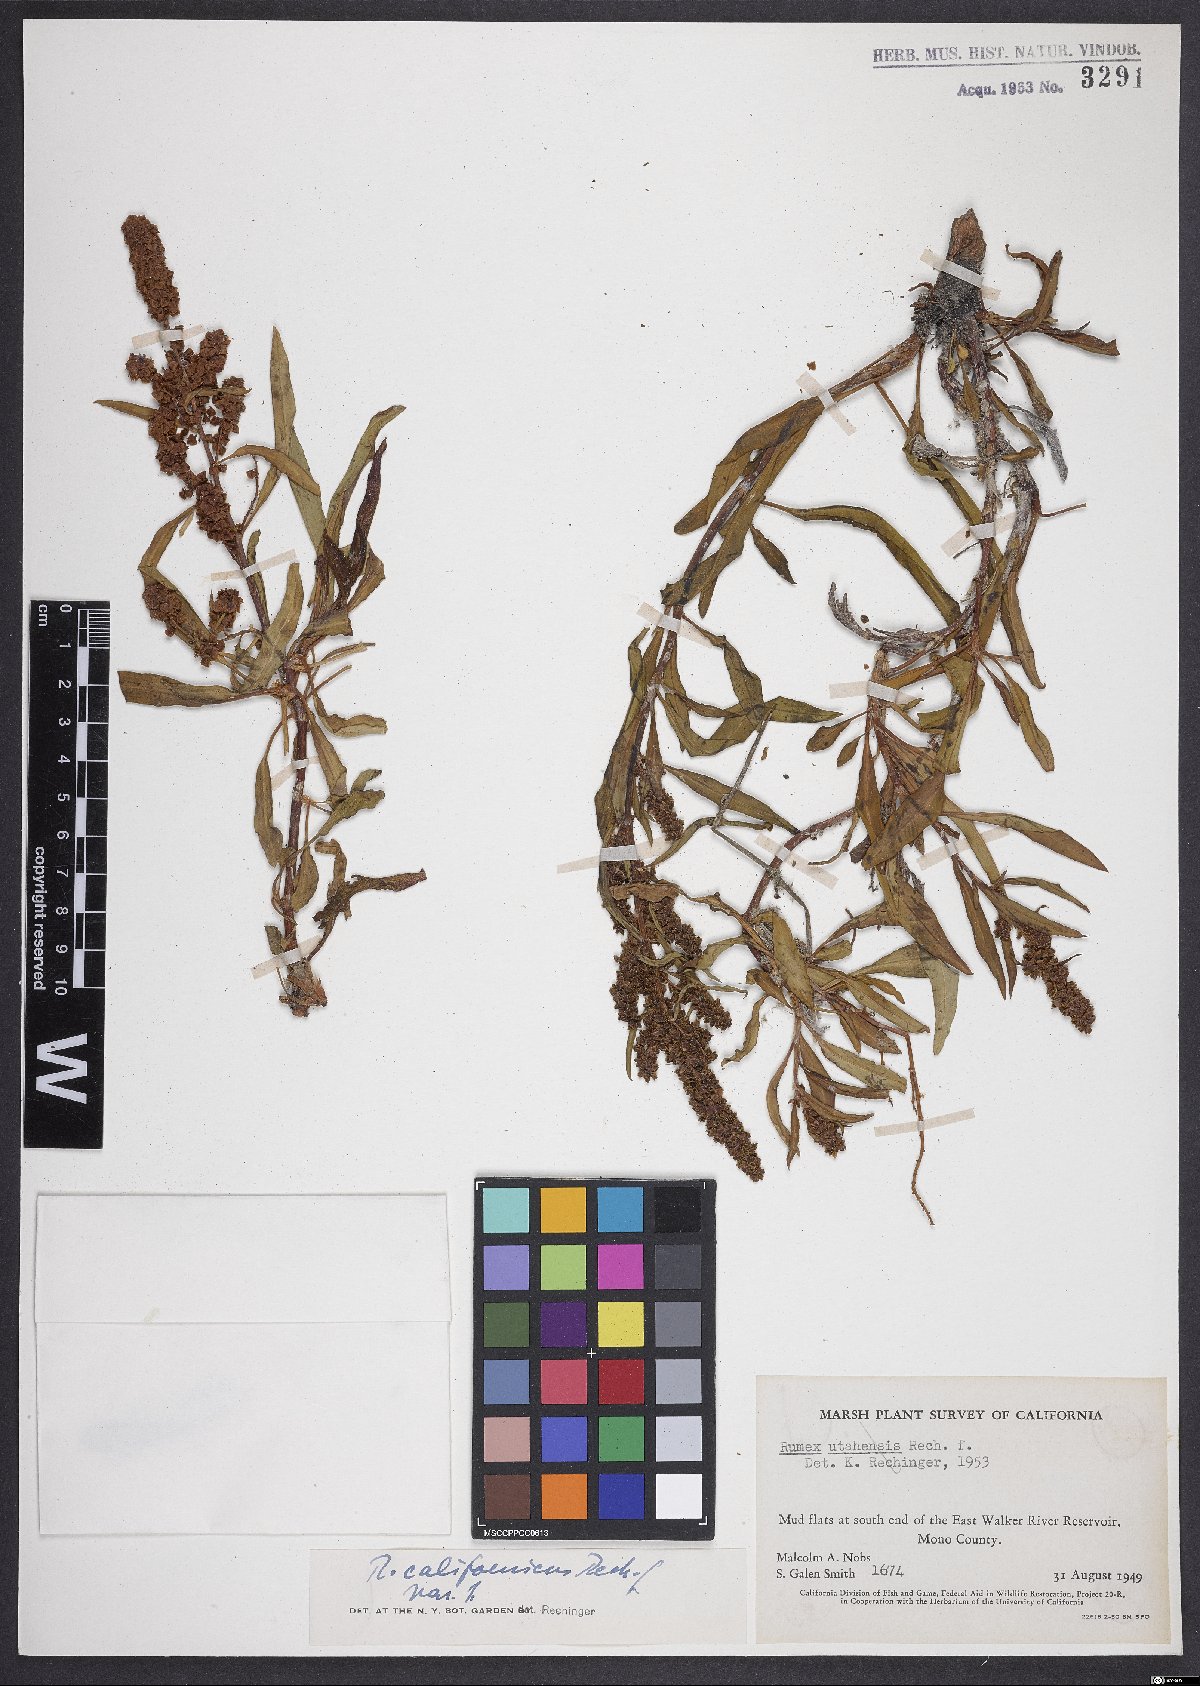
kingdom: Plantae
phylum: Tracheophyta
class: Magnoliopsida
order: Caryophyllales
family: Polygonaceae
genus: Rumex
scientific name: Rumex californicus
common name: California willow dock
